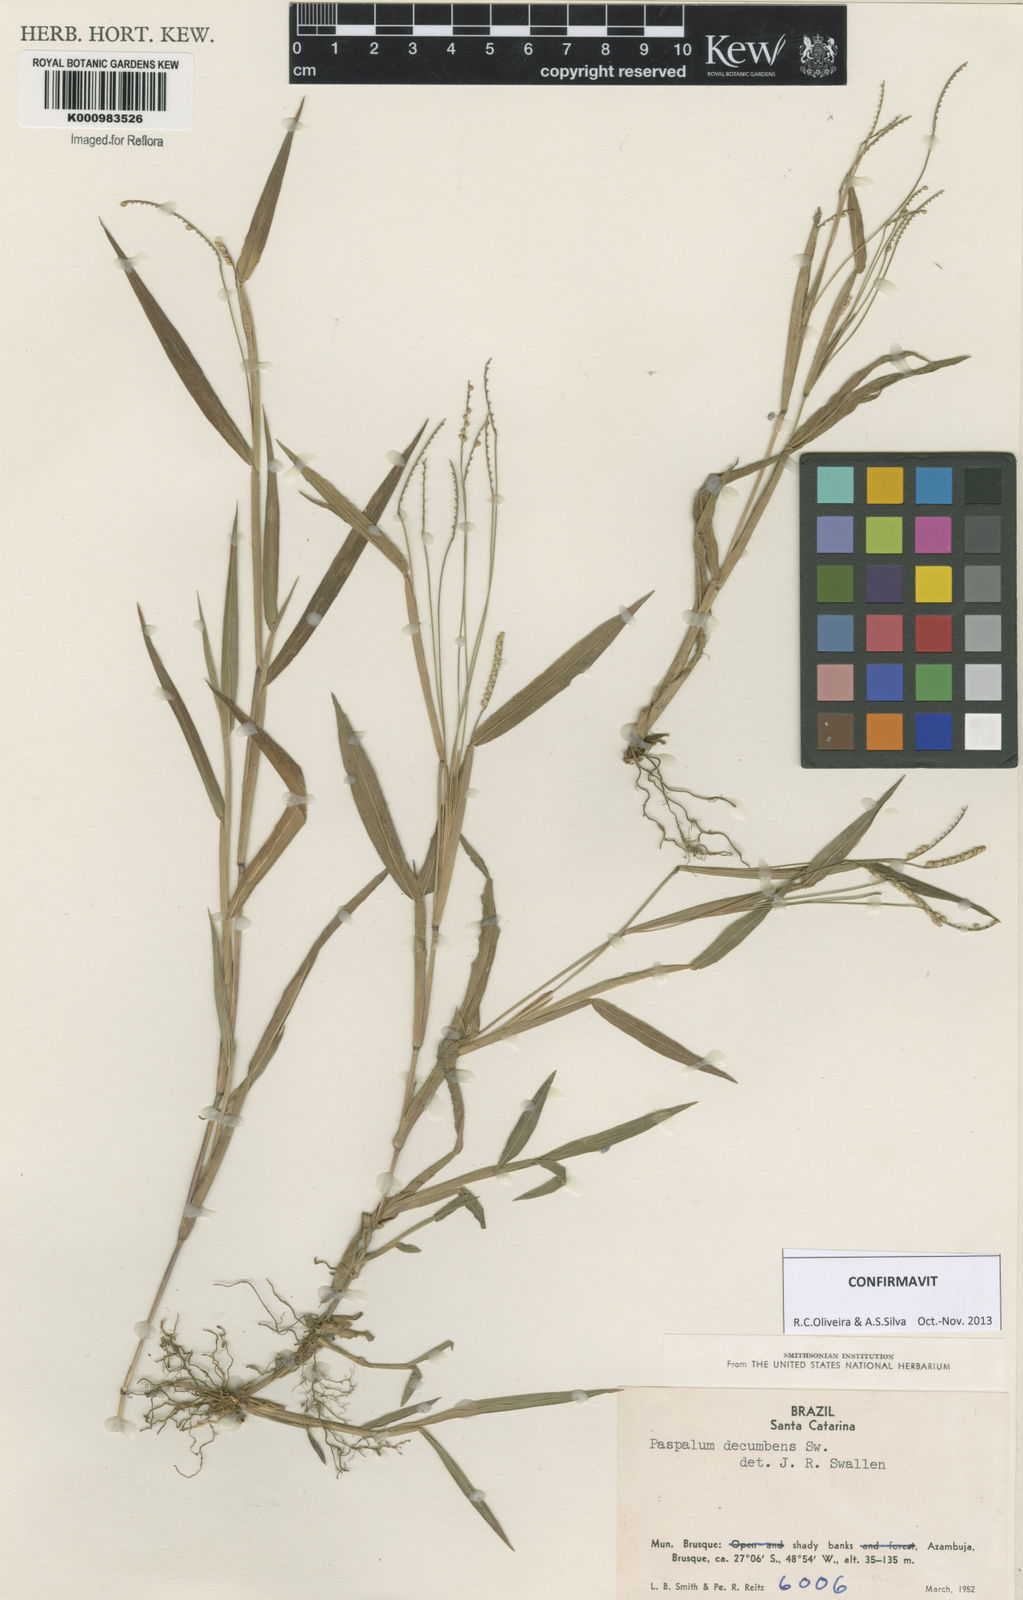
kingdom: Plantae
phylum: Tracheophyta
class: Liliopsida
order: Poales
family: Poaceae
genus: Paspalum
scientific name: Paspalum decumbens
